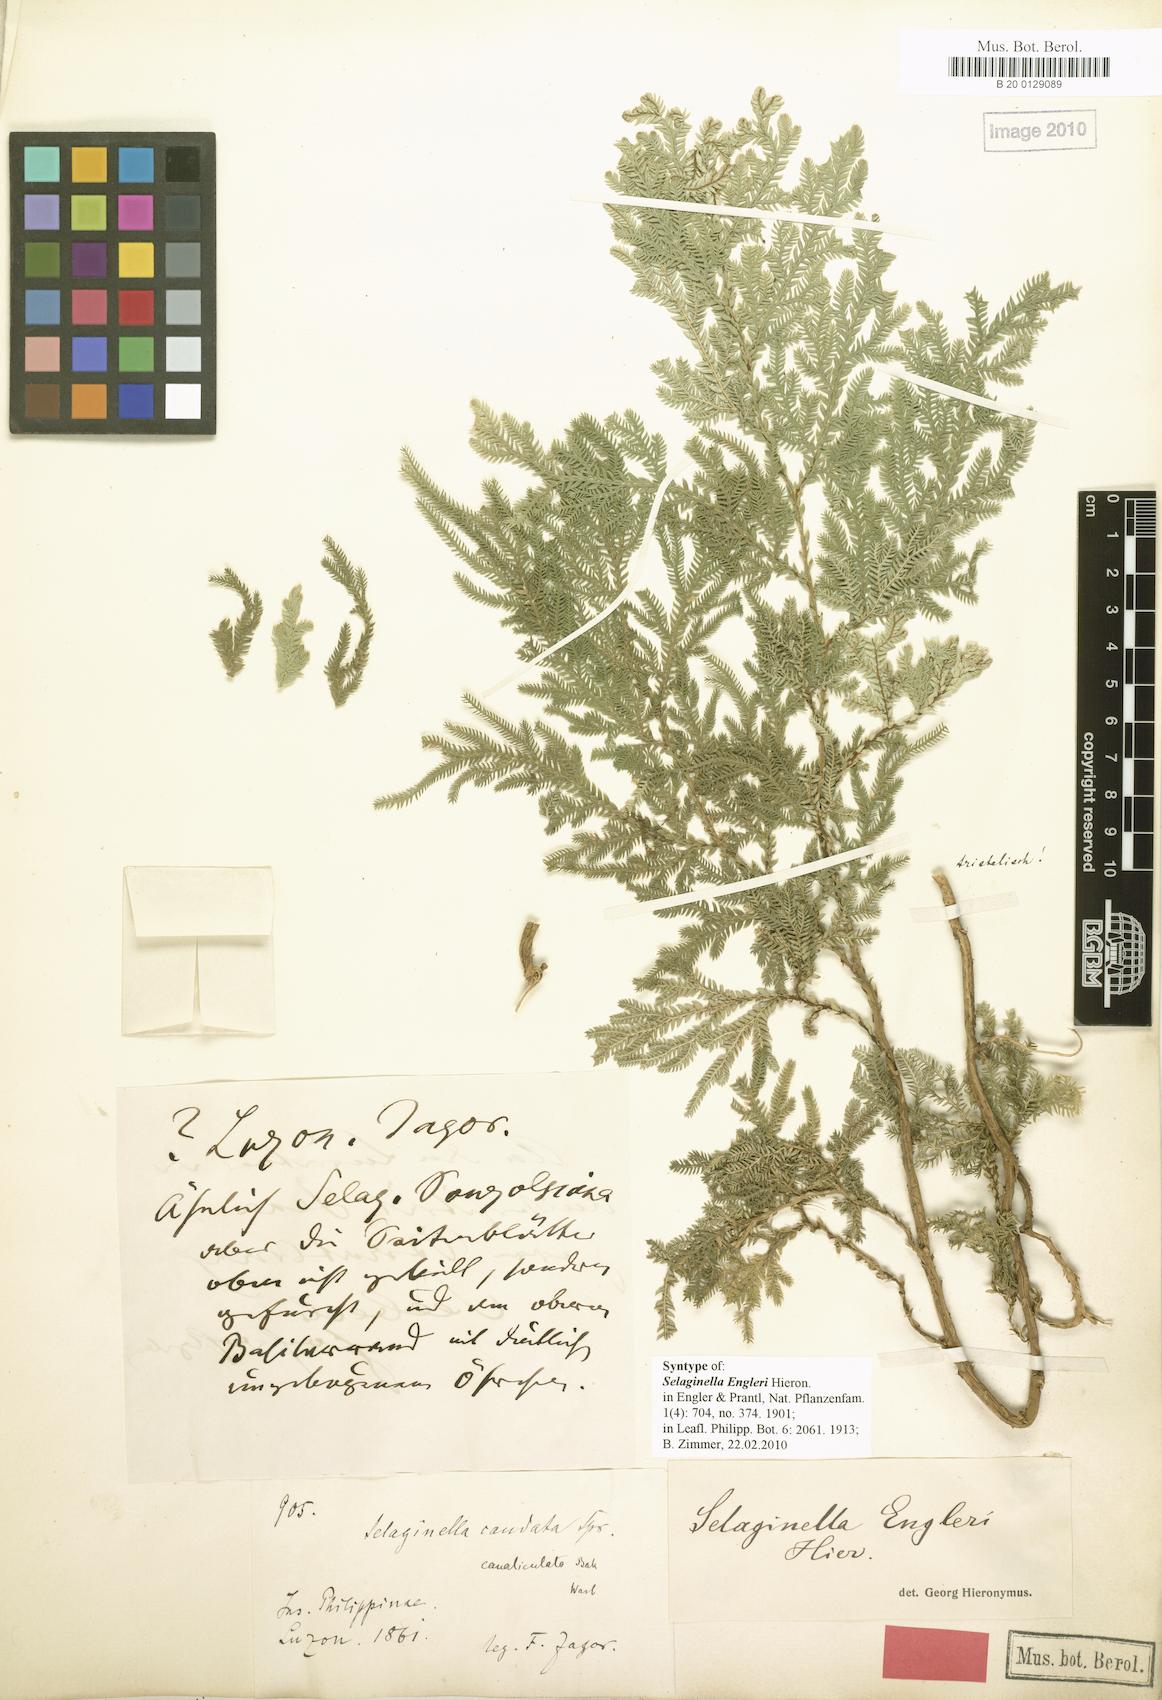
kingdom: Plantae
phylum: Tracheophyta
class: Lycopodiopsida
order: Selaginellales
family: Selaginellaceae
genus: Selaginella
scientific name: Selaginella engleri
